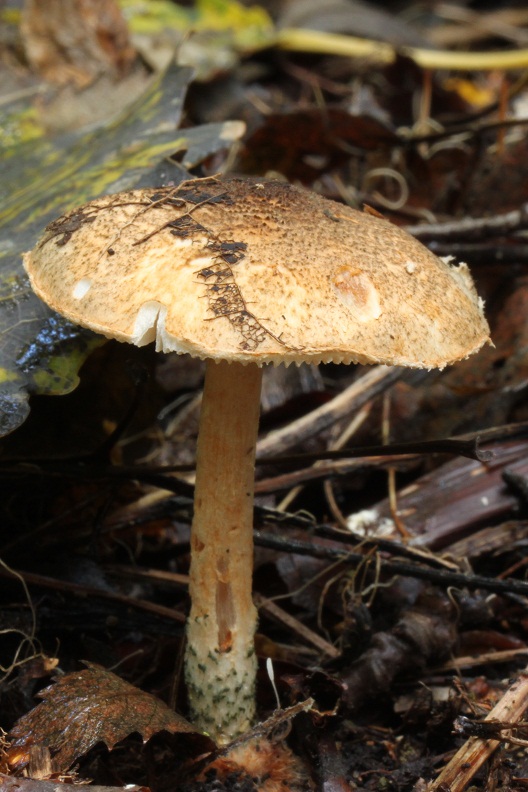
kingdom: Fungi
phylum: Basidiomycota
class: Agaricomycetes
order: Agaricales
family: Typhulaceae
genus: Typhula
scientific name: Typhula setipes
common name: liden trådkølle
